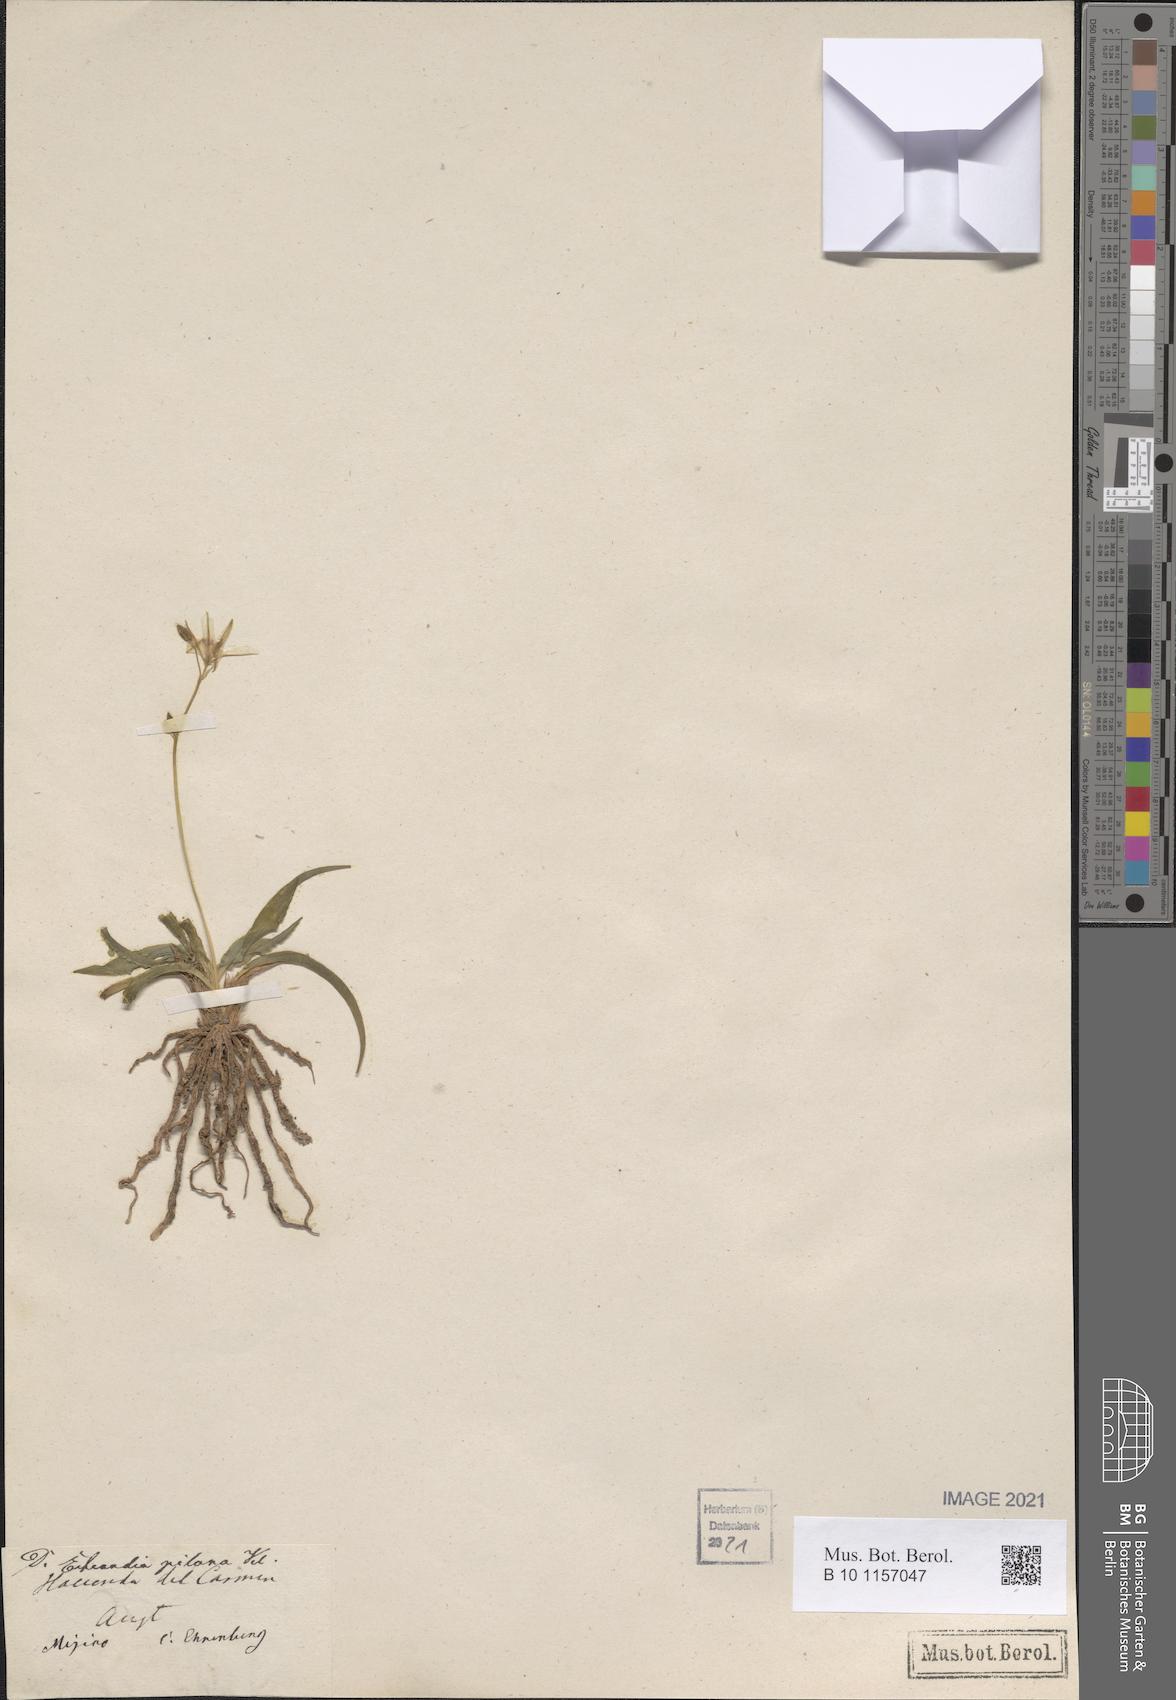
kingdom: Plantae
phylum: Tracheophyta
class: Liliopsida
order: Asparagales
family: Asparagaceae
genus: Echeandia
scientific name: Echeandia
